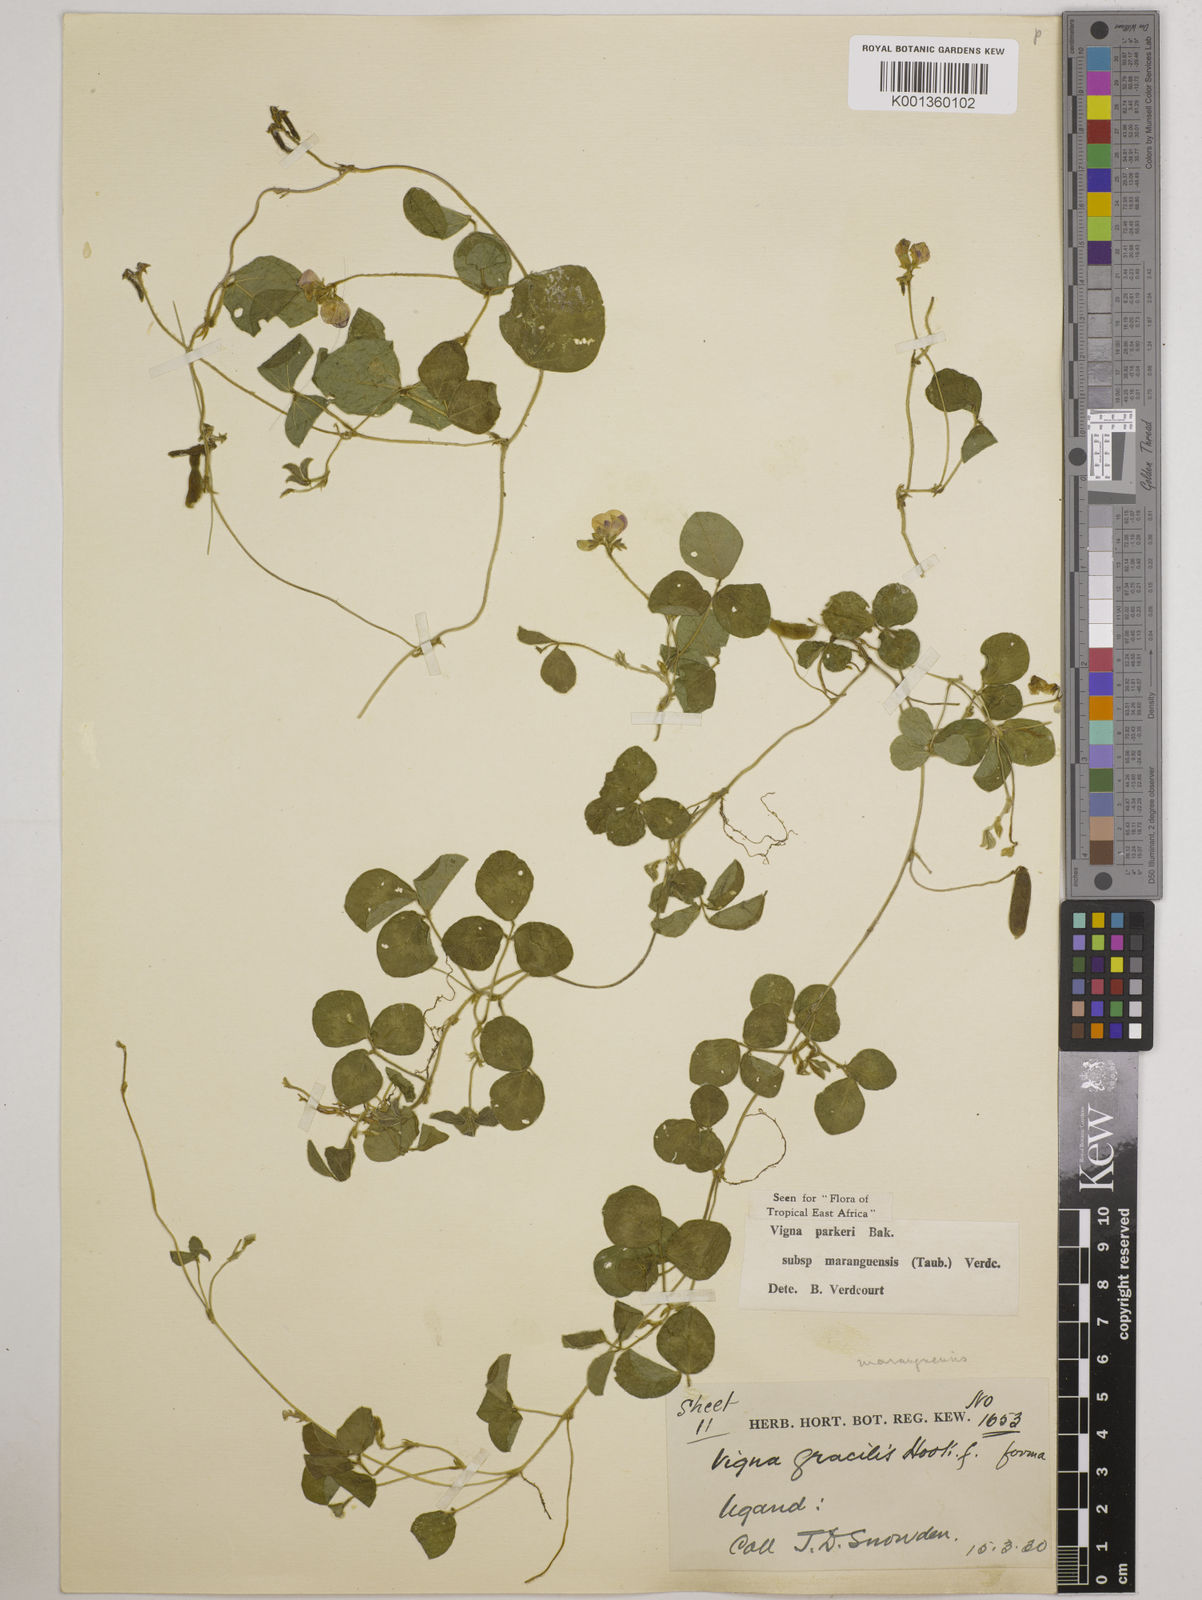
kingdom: Plantae
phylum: Tracheophyta
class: Magnoliopsida
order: Fabales
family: Fabaceae
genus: Vigna
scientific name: Vigna parkeri
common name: Creeping vigna
